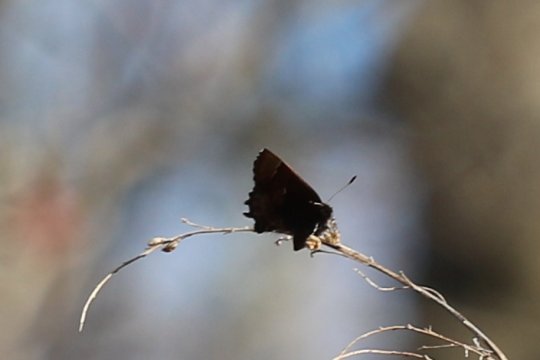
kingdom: Animalia
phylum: Arthropoda
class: Insecta
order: Lepidoptera
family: Lycaenidae
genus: Incisalia
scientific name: Incisalia henrici
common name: Henry's Elfin
